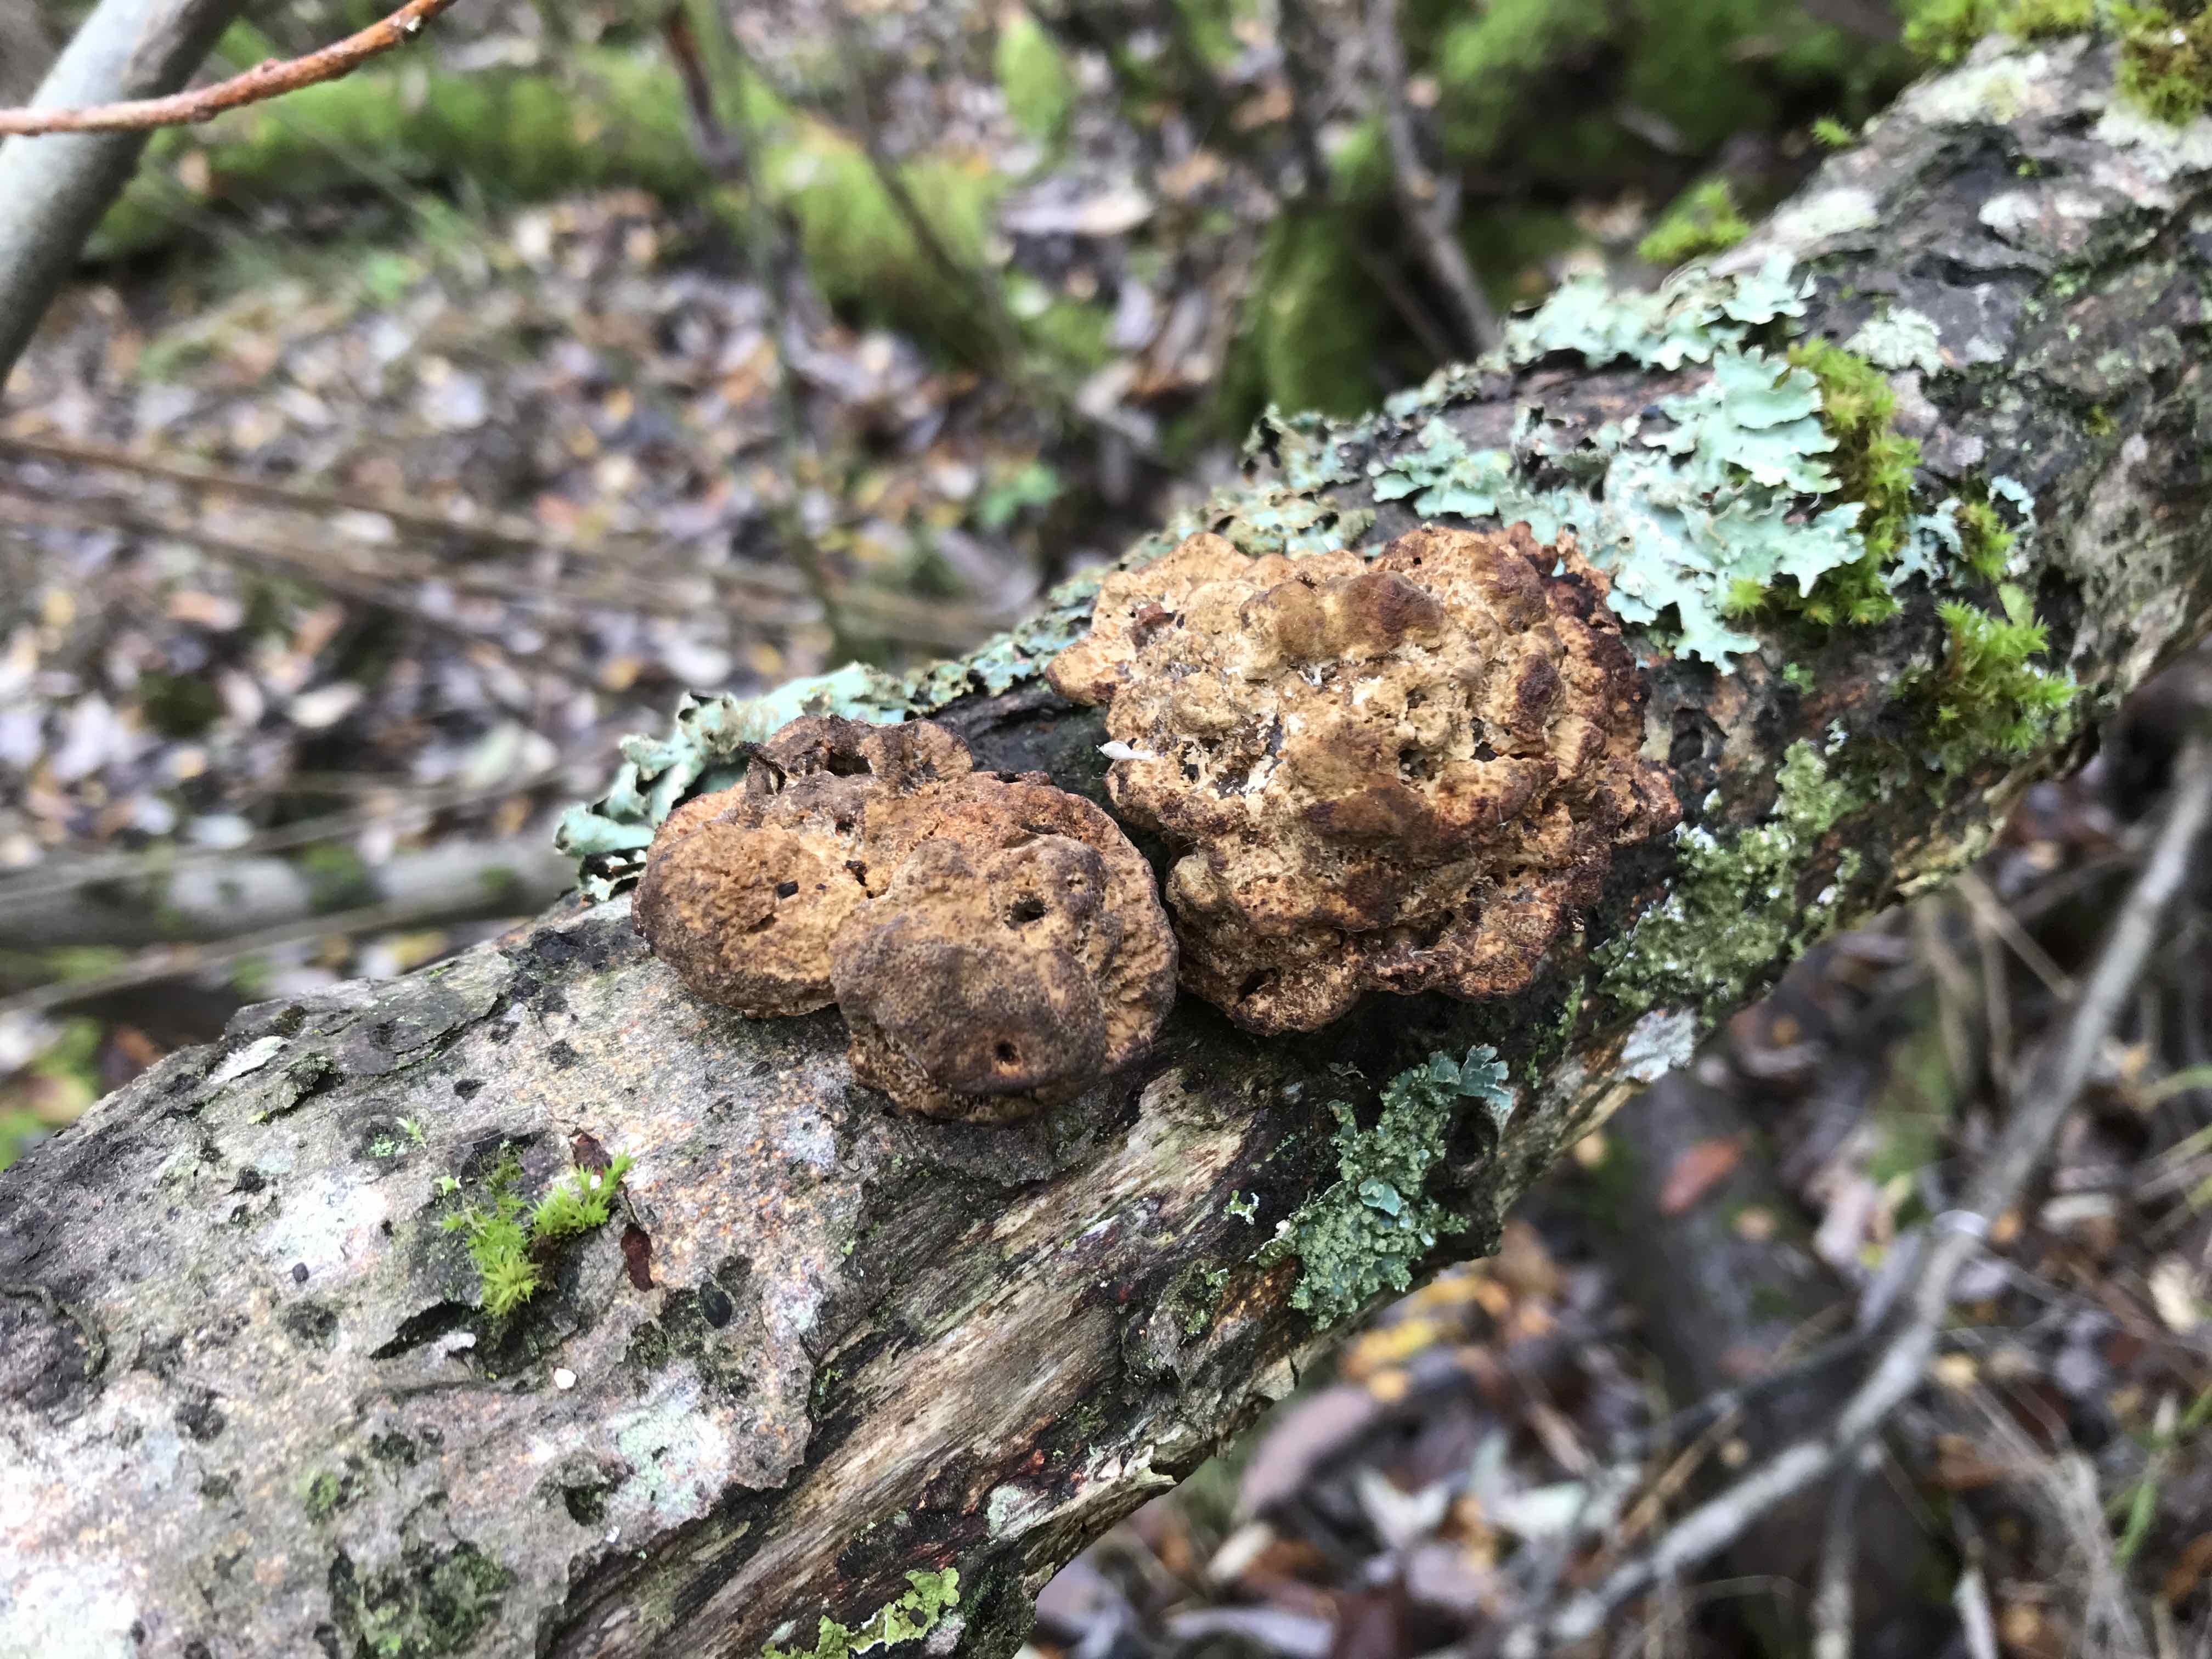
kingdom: Fungi
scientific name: Fungi
